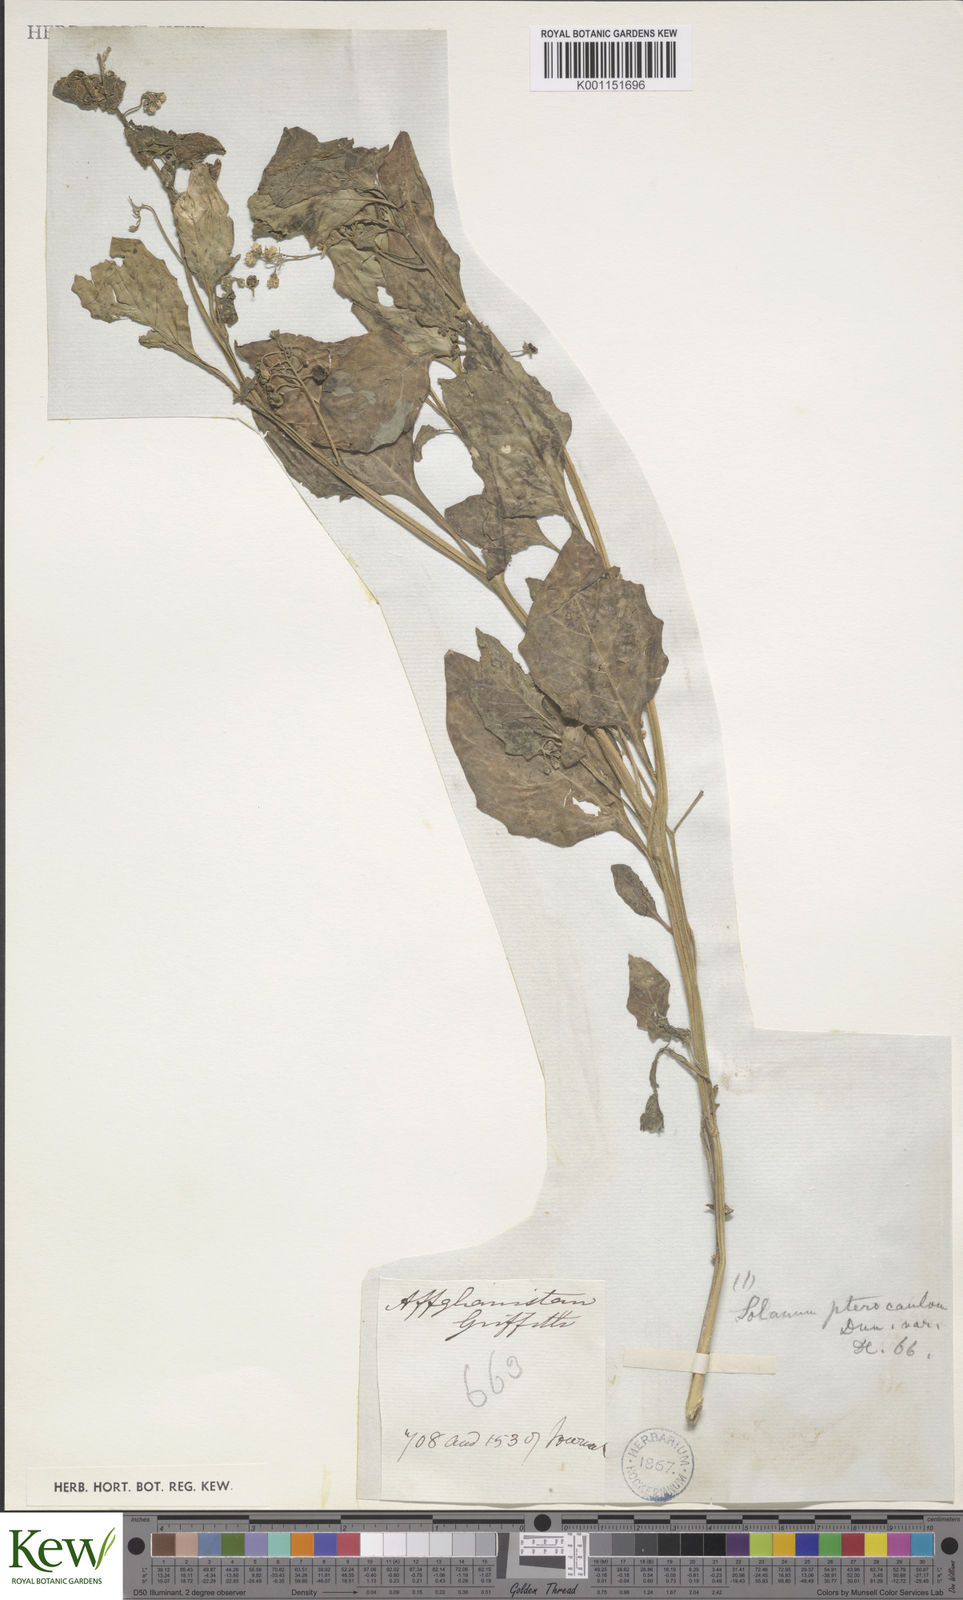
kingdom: Plantae
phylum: Tracheophyta
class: Magnoliopsida
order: Solanales
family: Solanaceae
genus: Solanum
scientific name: Solanum nigrum
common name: Black nightshade
